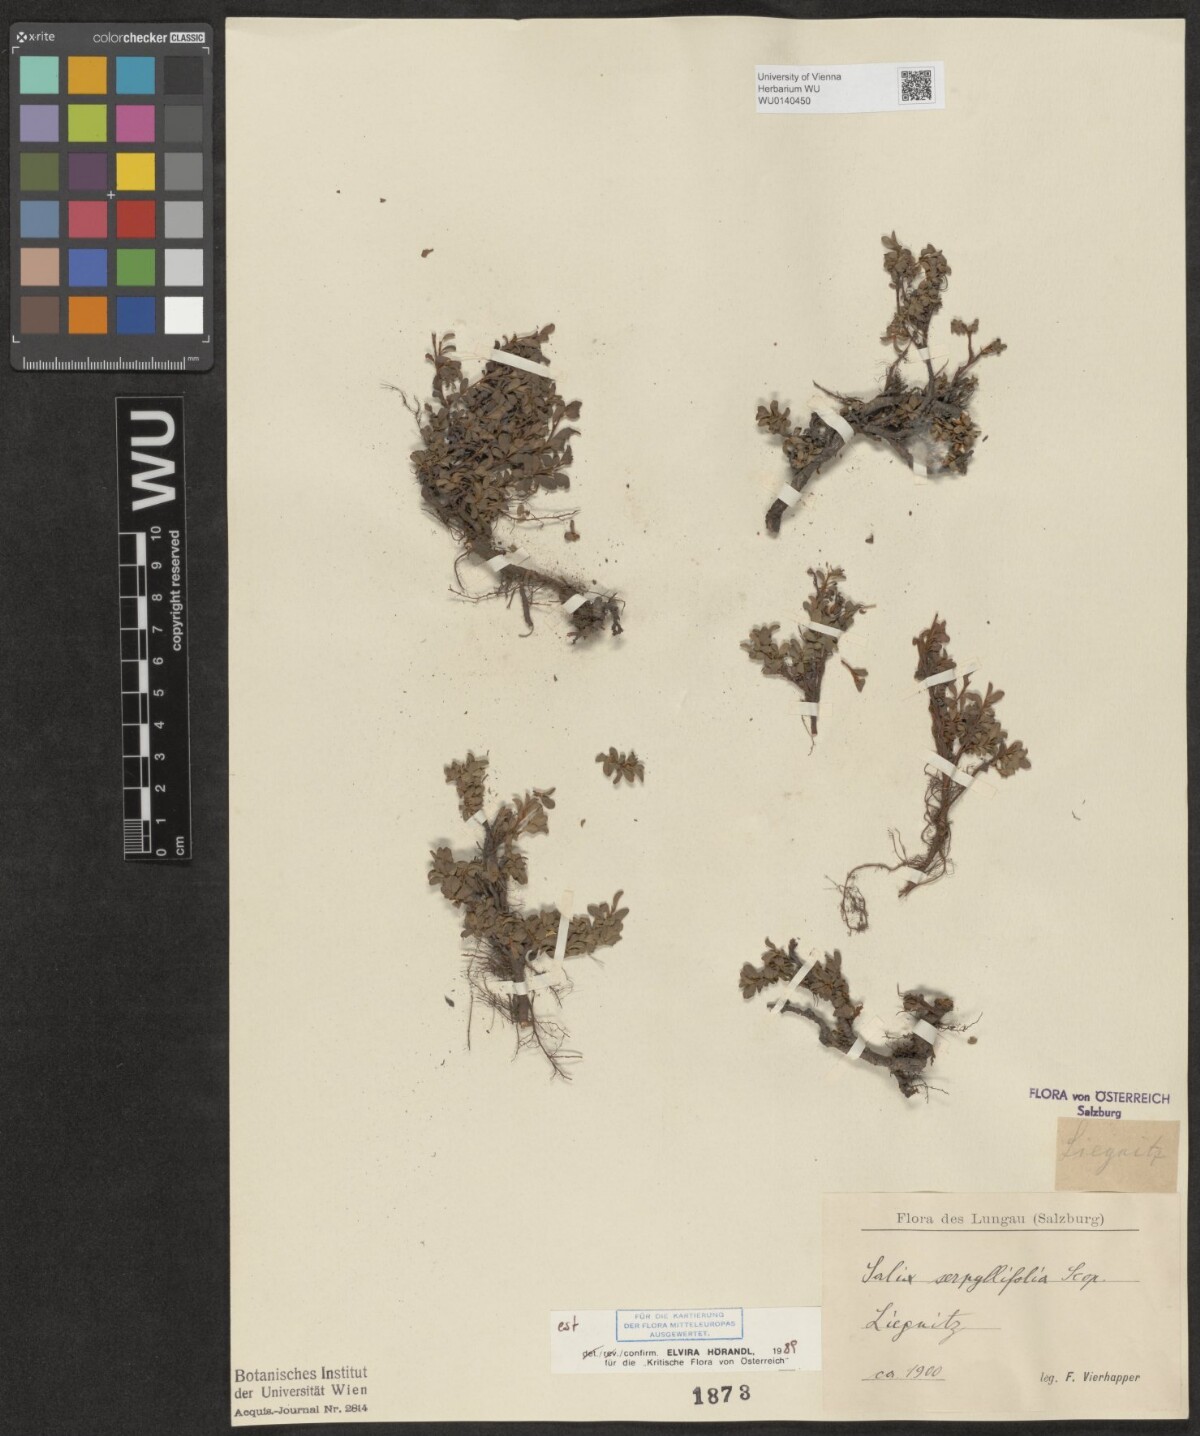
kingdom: Plantae
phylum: Tracheophyta
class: Magnoliopsida
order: Malpighiales
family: Salicaceae
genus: Salix
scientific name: Salix serpillifolia
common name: Thyme-leaf willow
